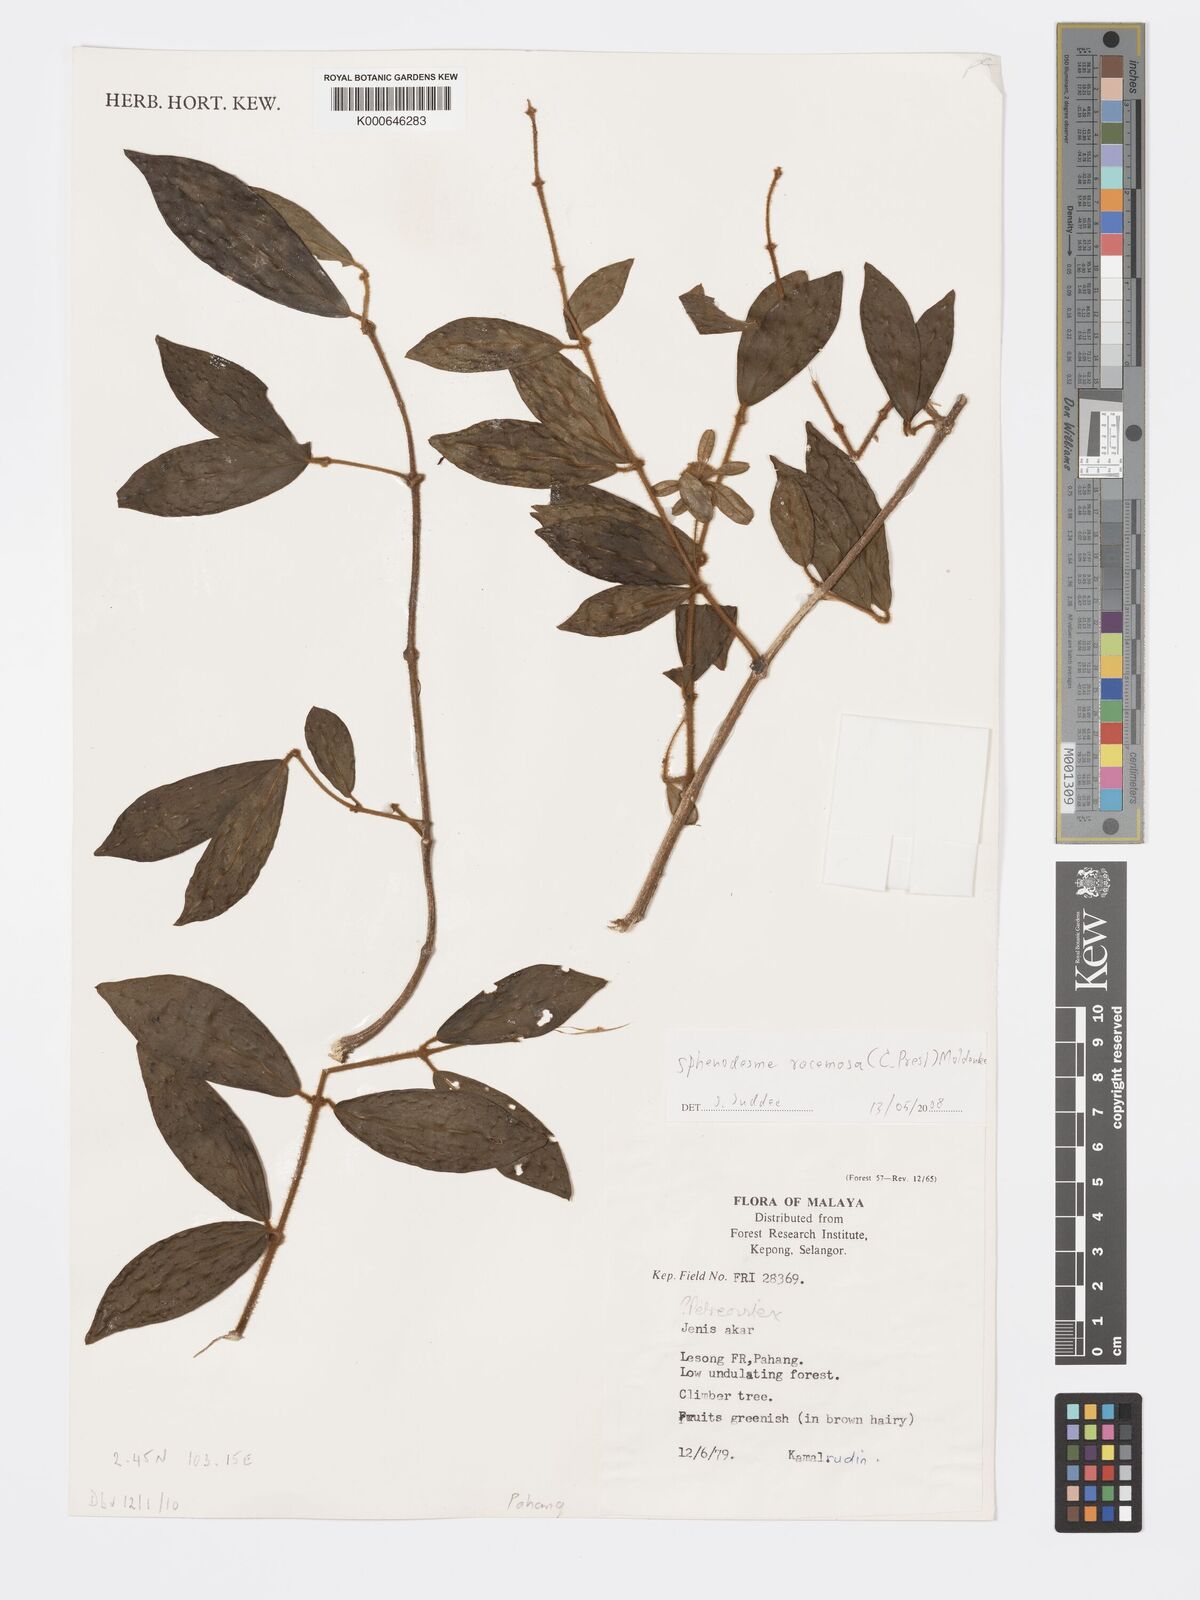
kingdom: Plantae
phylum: Tracheophyta
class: Magnoliopsida
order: Lamiales
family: Lamiaceae
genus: Sphenodesme
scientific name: Sphenodesme racemosa
